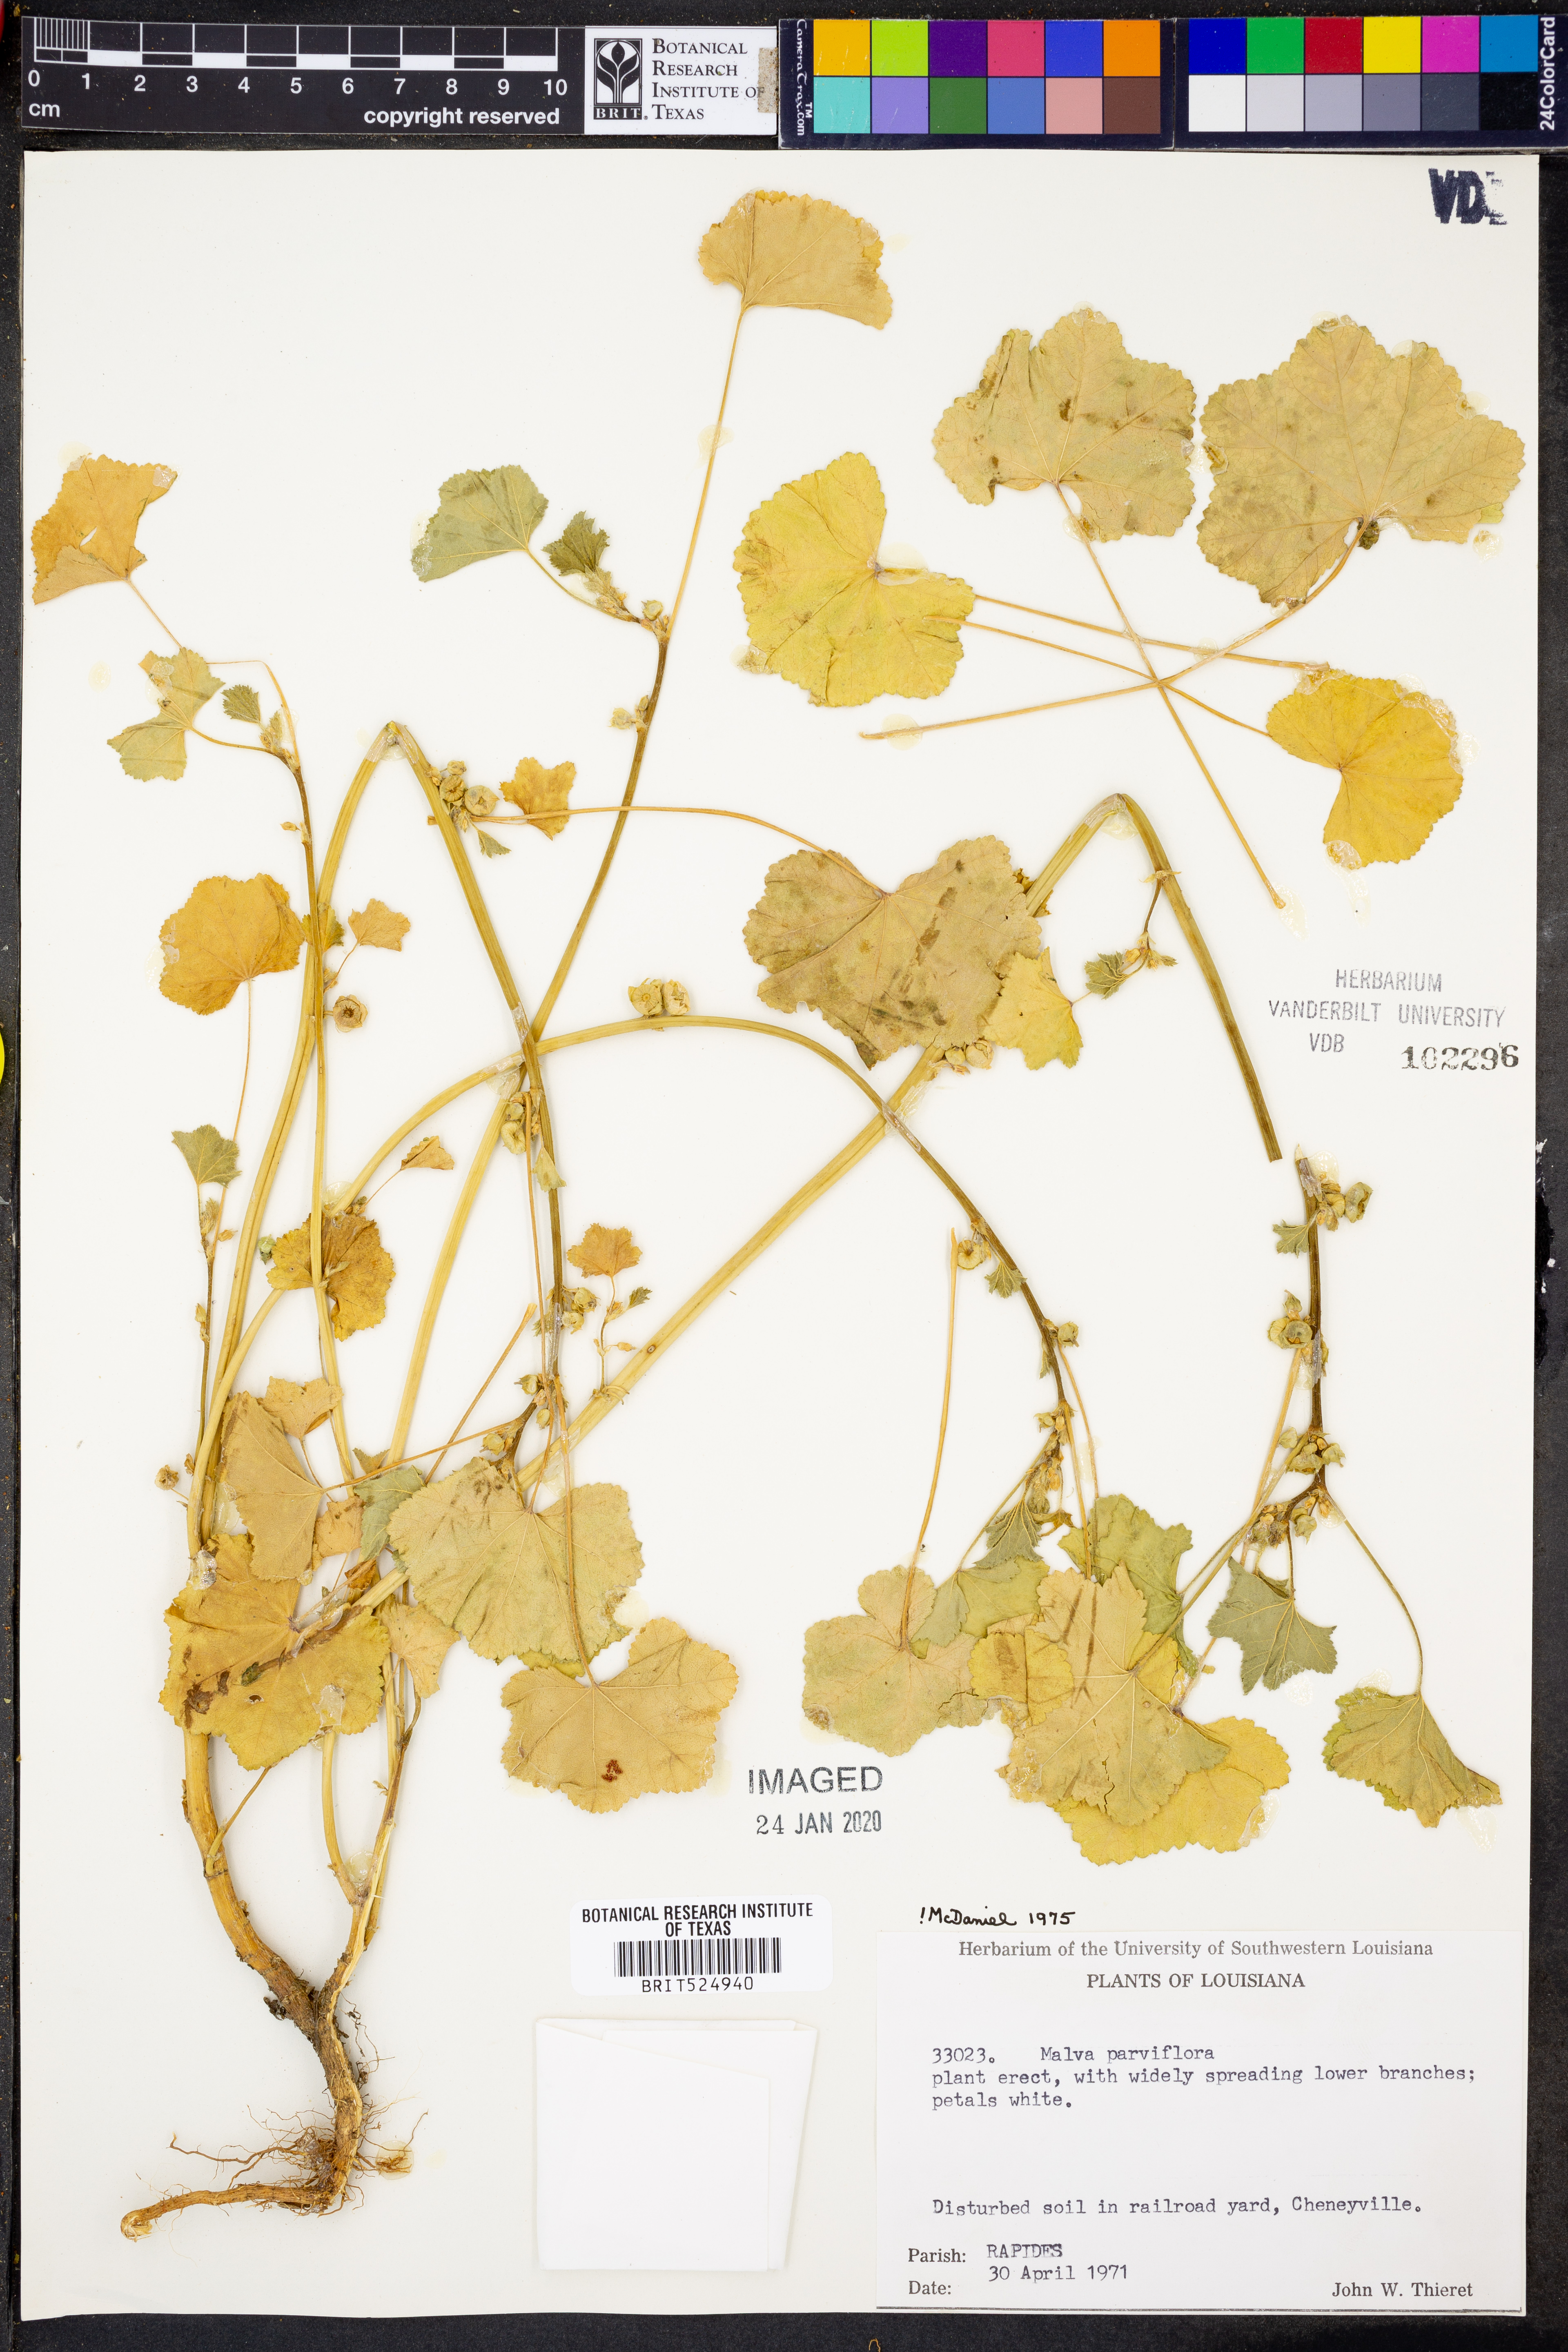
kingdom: Plantae
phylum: Tracheophyta
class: Magnoliopsida
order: Malvales
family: Malvaceae
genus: Malva
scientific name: Malva parviflora
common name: Least mallow
